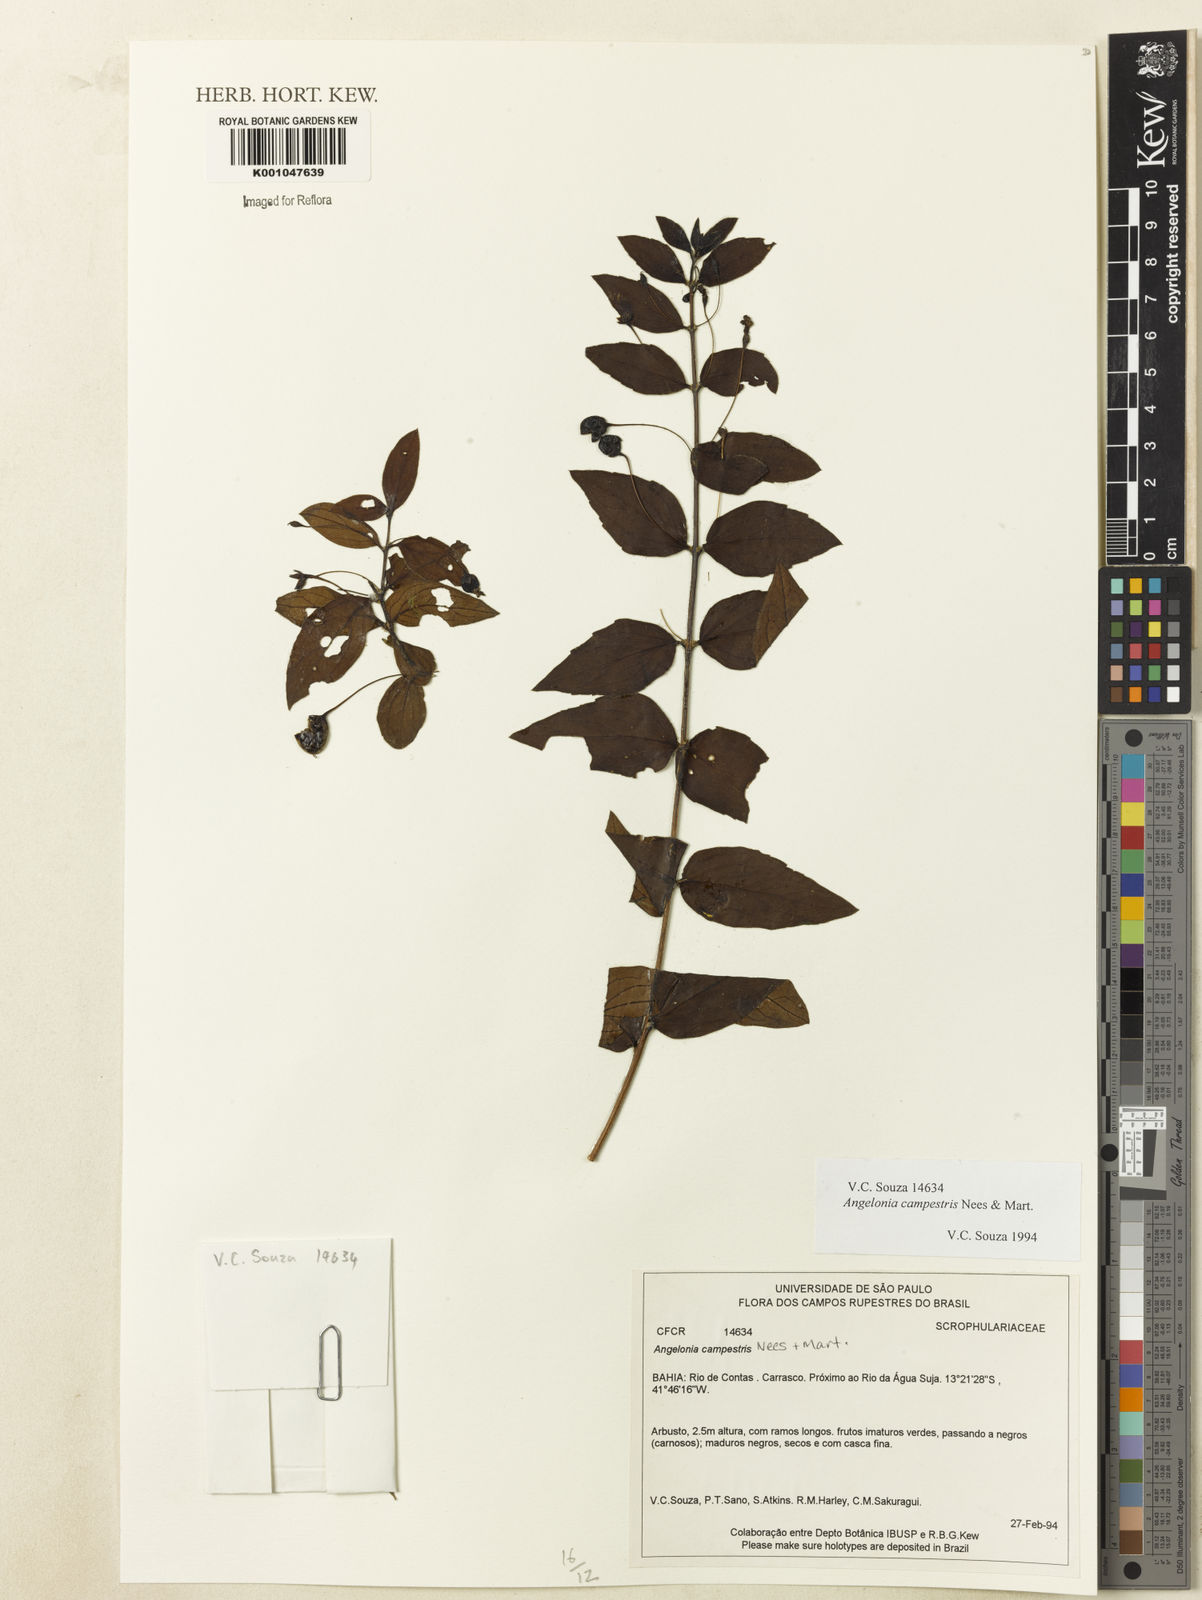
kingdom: Plantae
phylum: Tracheophyta
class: Magnoliopsida
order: Lamiales
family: Plantaginaceae
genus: Angelonia
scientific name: Angelonia campestris
